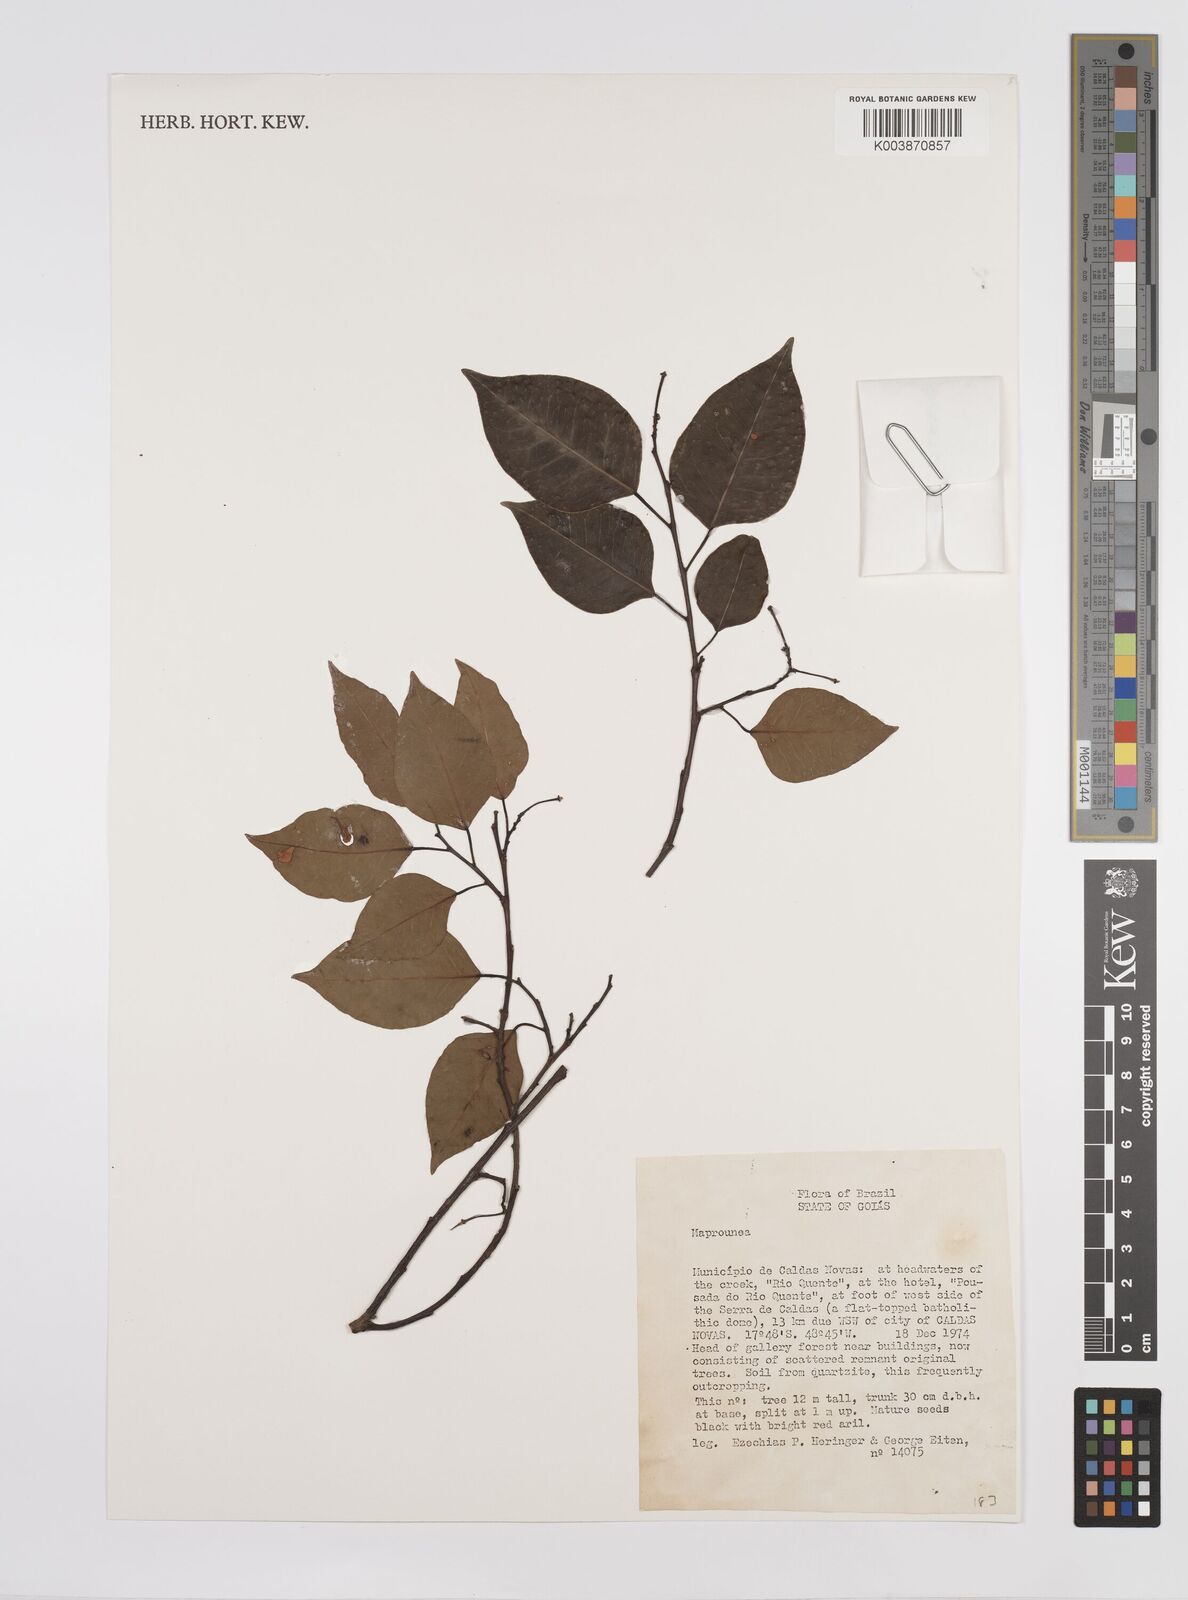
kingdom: Plantae
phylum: Tracheophyta
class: Magnoliopsida
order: Malpighiales
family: Euphorbiaceae
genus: Maprounea
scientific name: Maprounea
